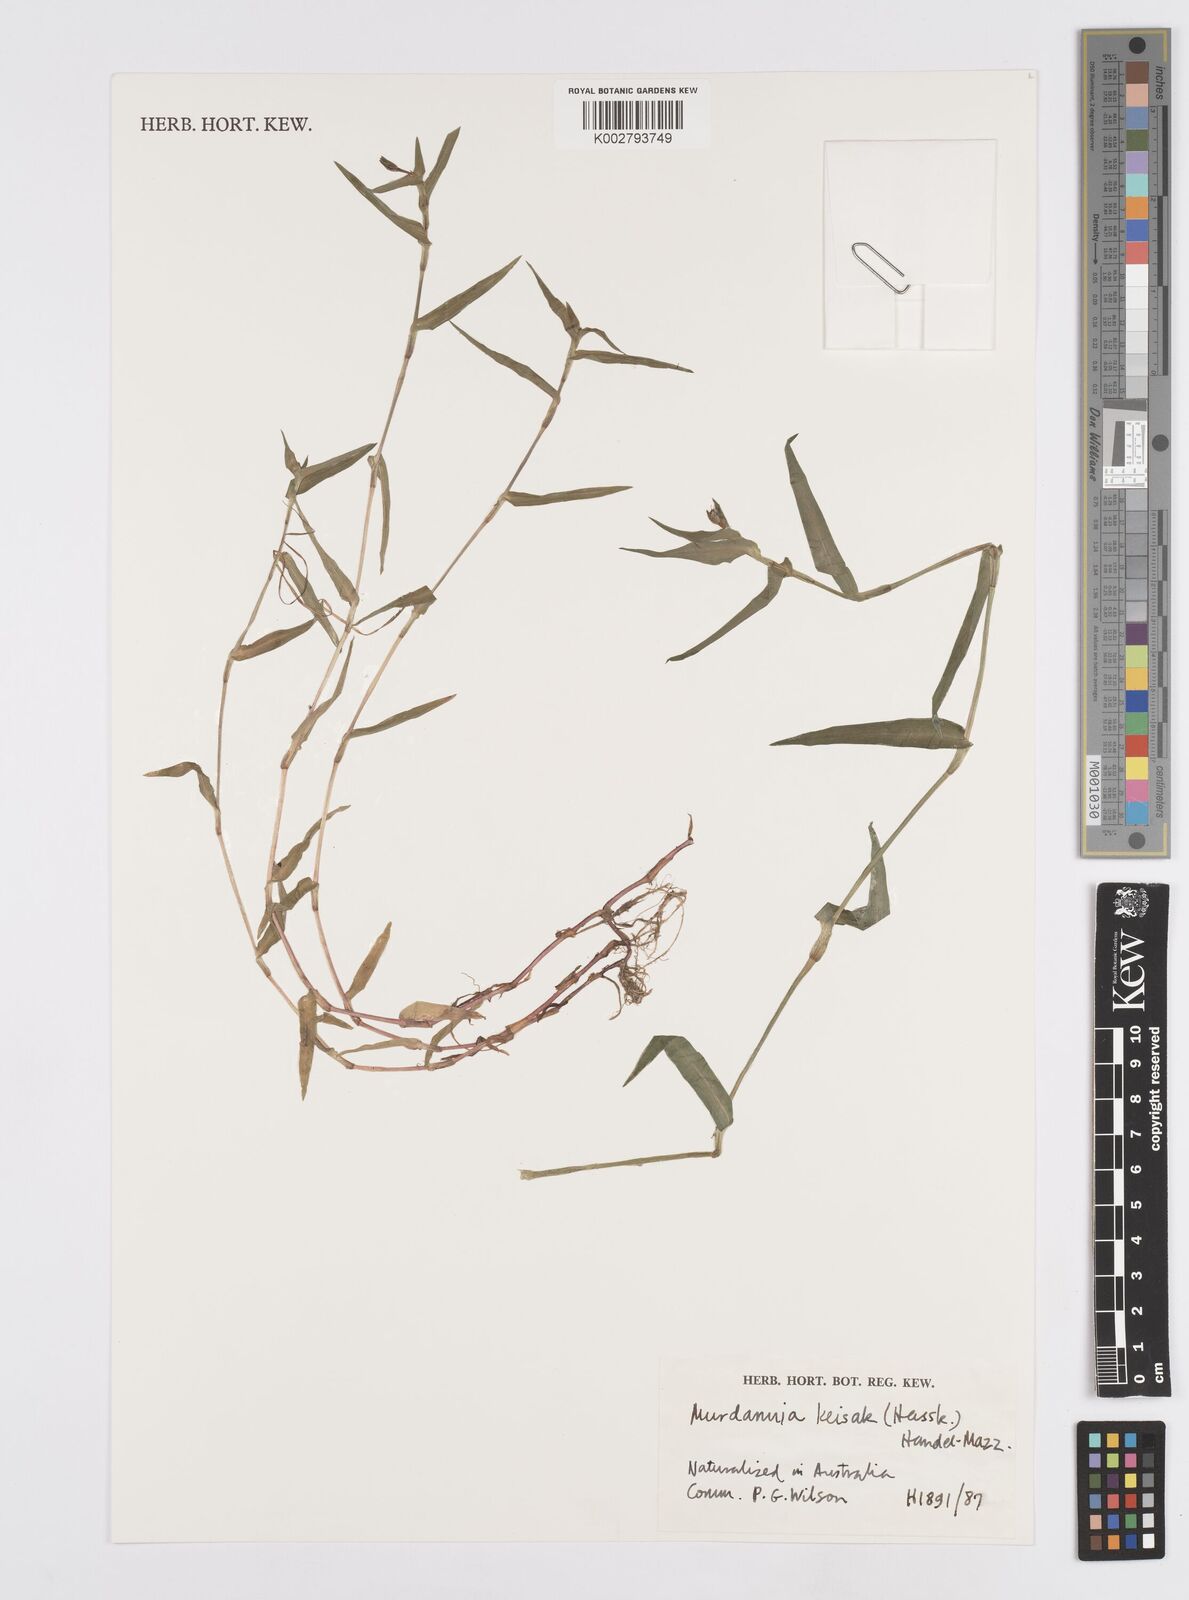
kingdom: Plantae
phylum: Tracheophyta
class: Liliopsida
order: Commelinales
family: Commelinaceae
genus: Murdannia
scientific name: Murdannia keisak
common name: Wartremoving herb
